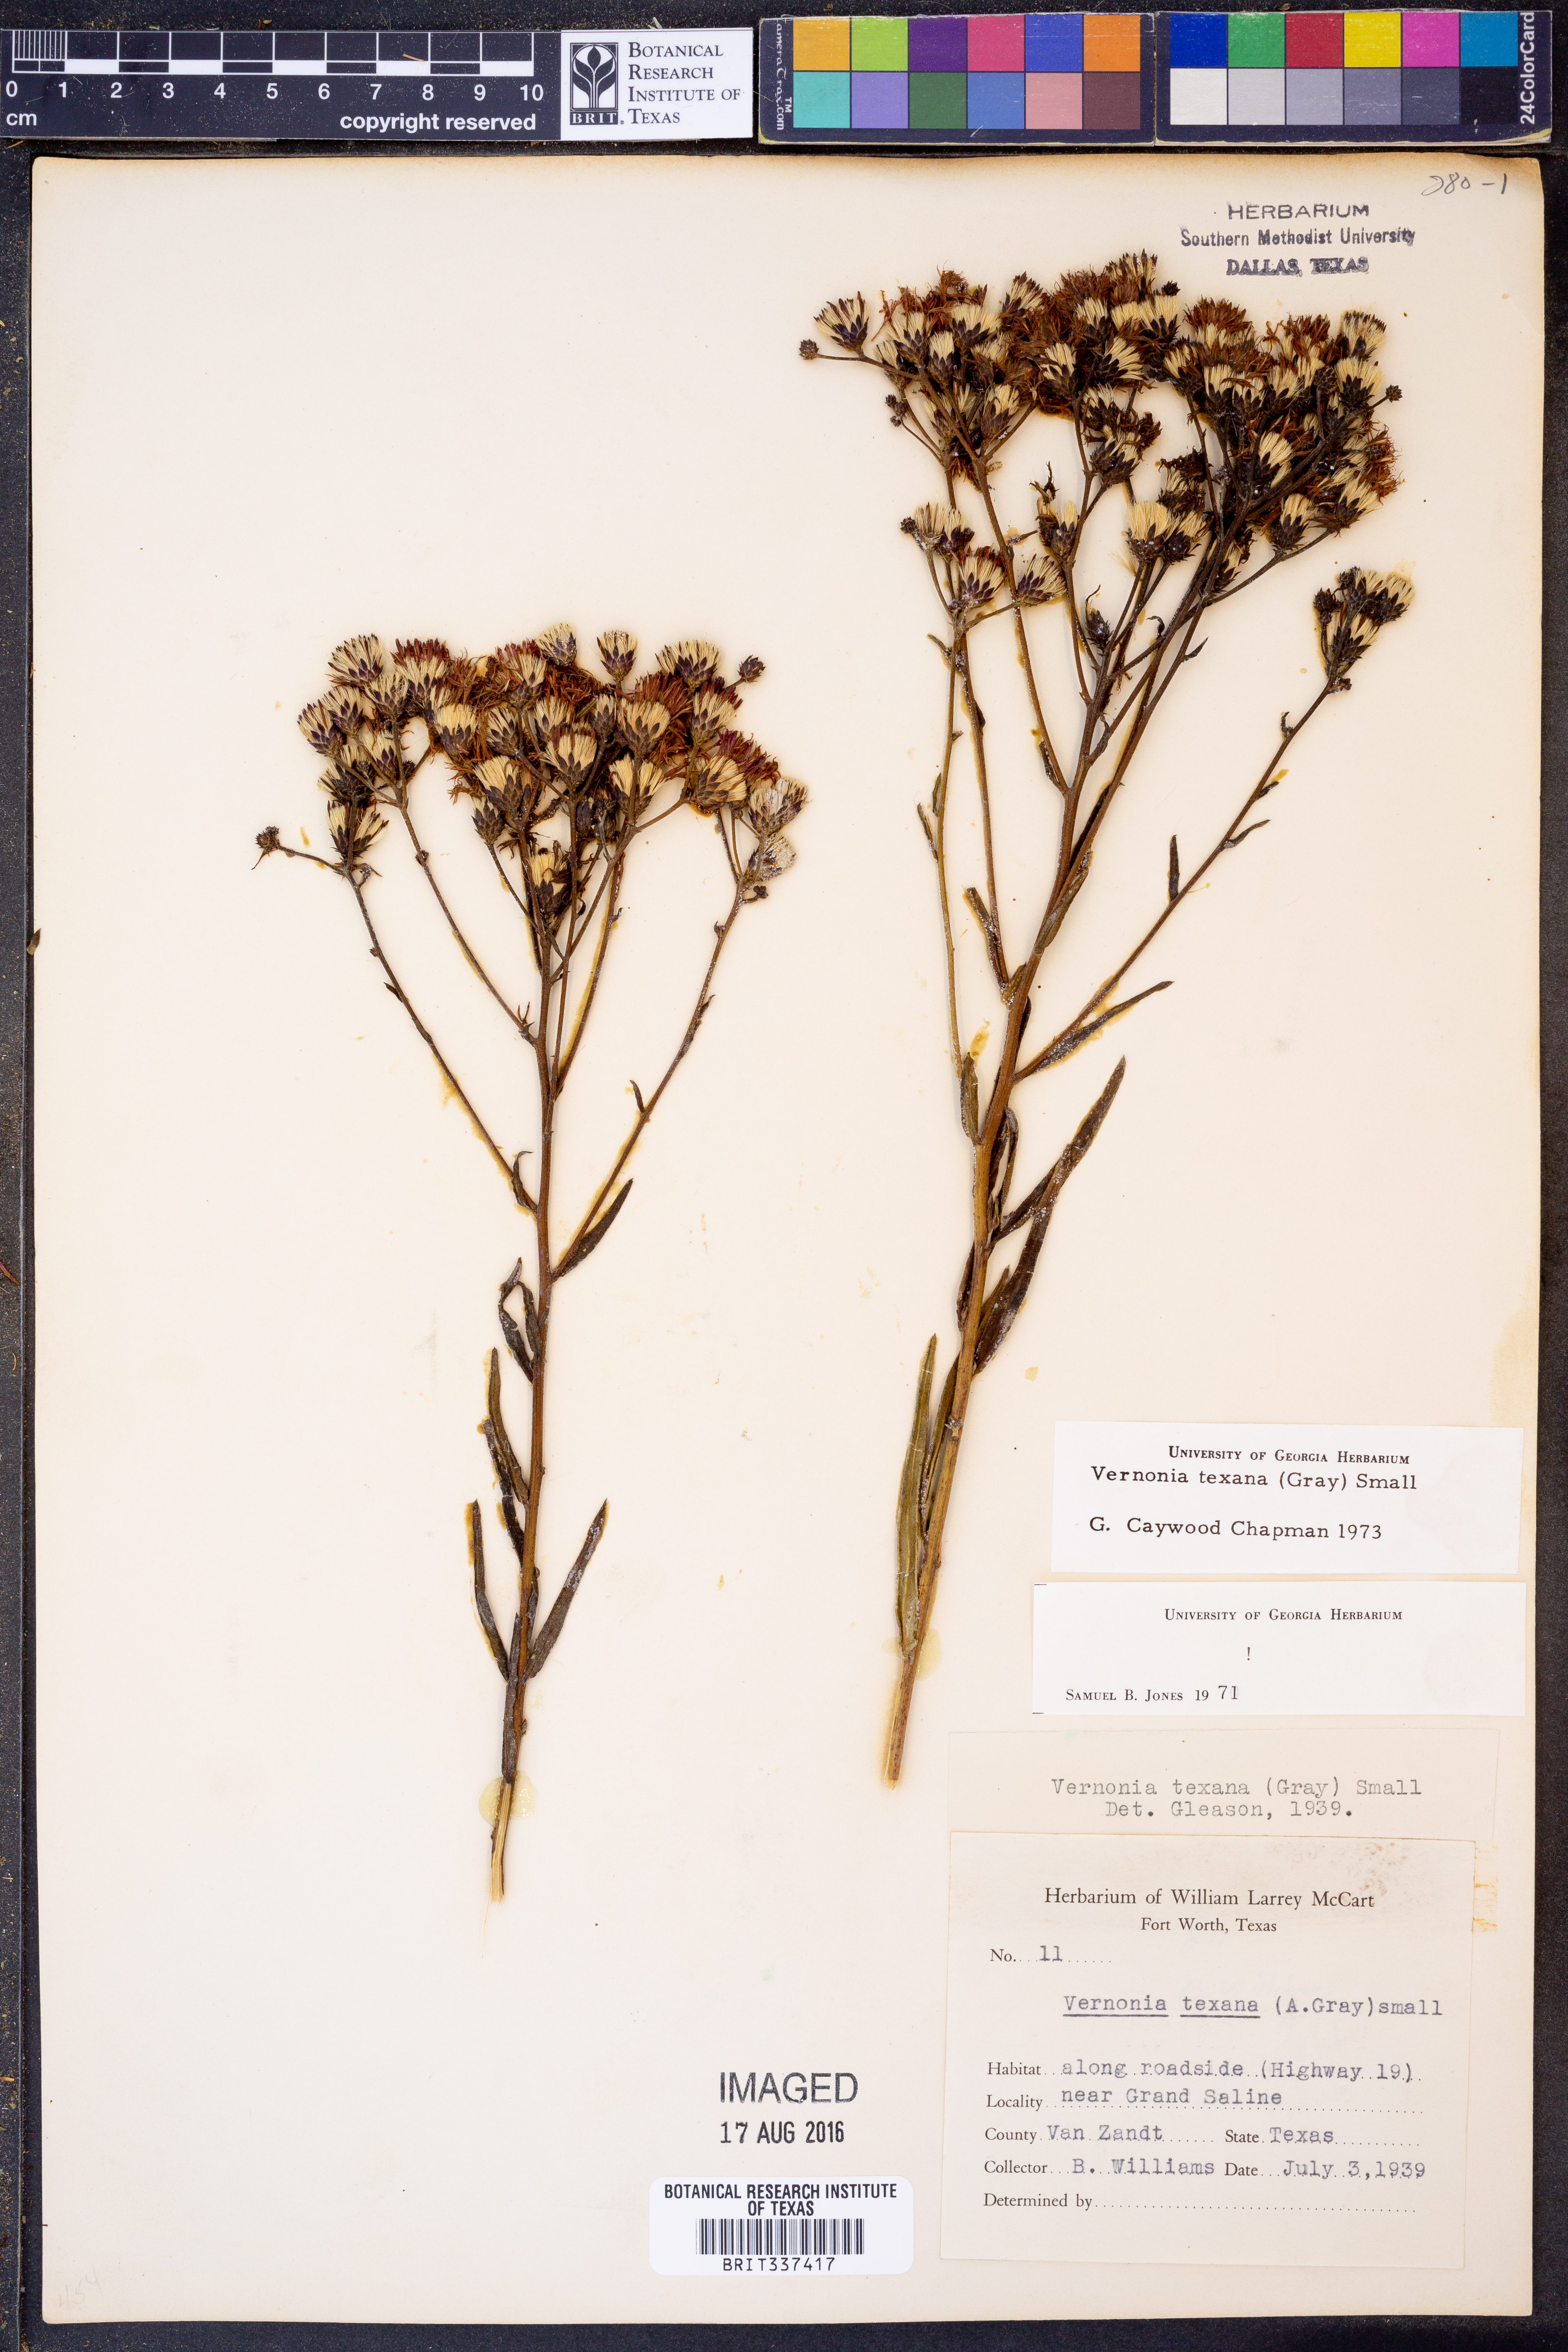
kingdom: Plantae
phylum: Tracheophyta
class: Magnoliopsida
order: Asterales
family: Asteraceae
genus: Vernonia
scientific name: Vernonia texana
